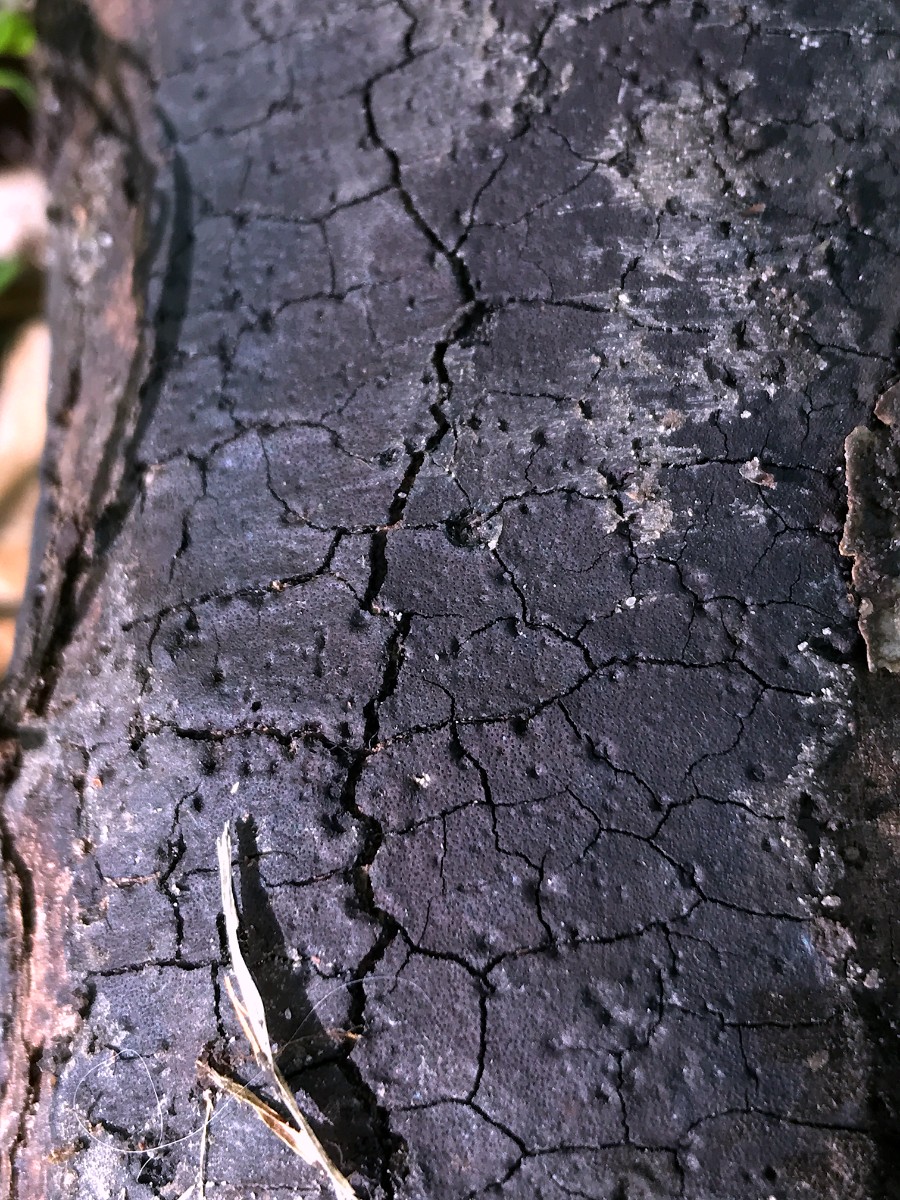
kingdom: Fungi
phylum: Ascomycota
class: Sordariomycetes
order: Xylariales
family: Diatrypaceae
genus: Diatrype
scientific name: Diatrype decorticata
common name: barksprænger-kulskorpe
